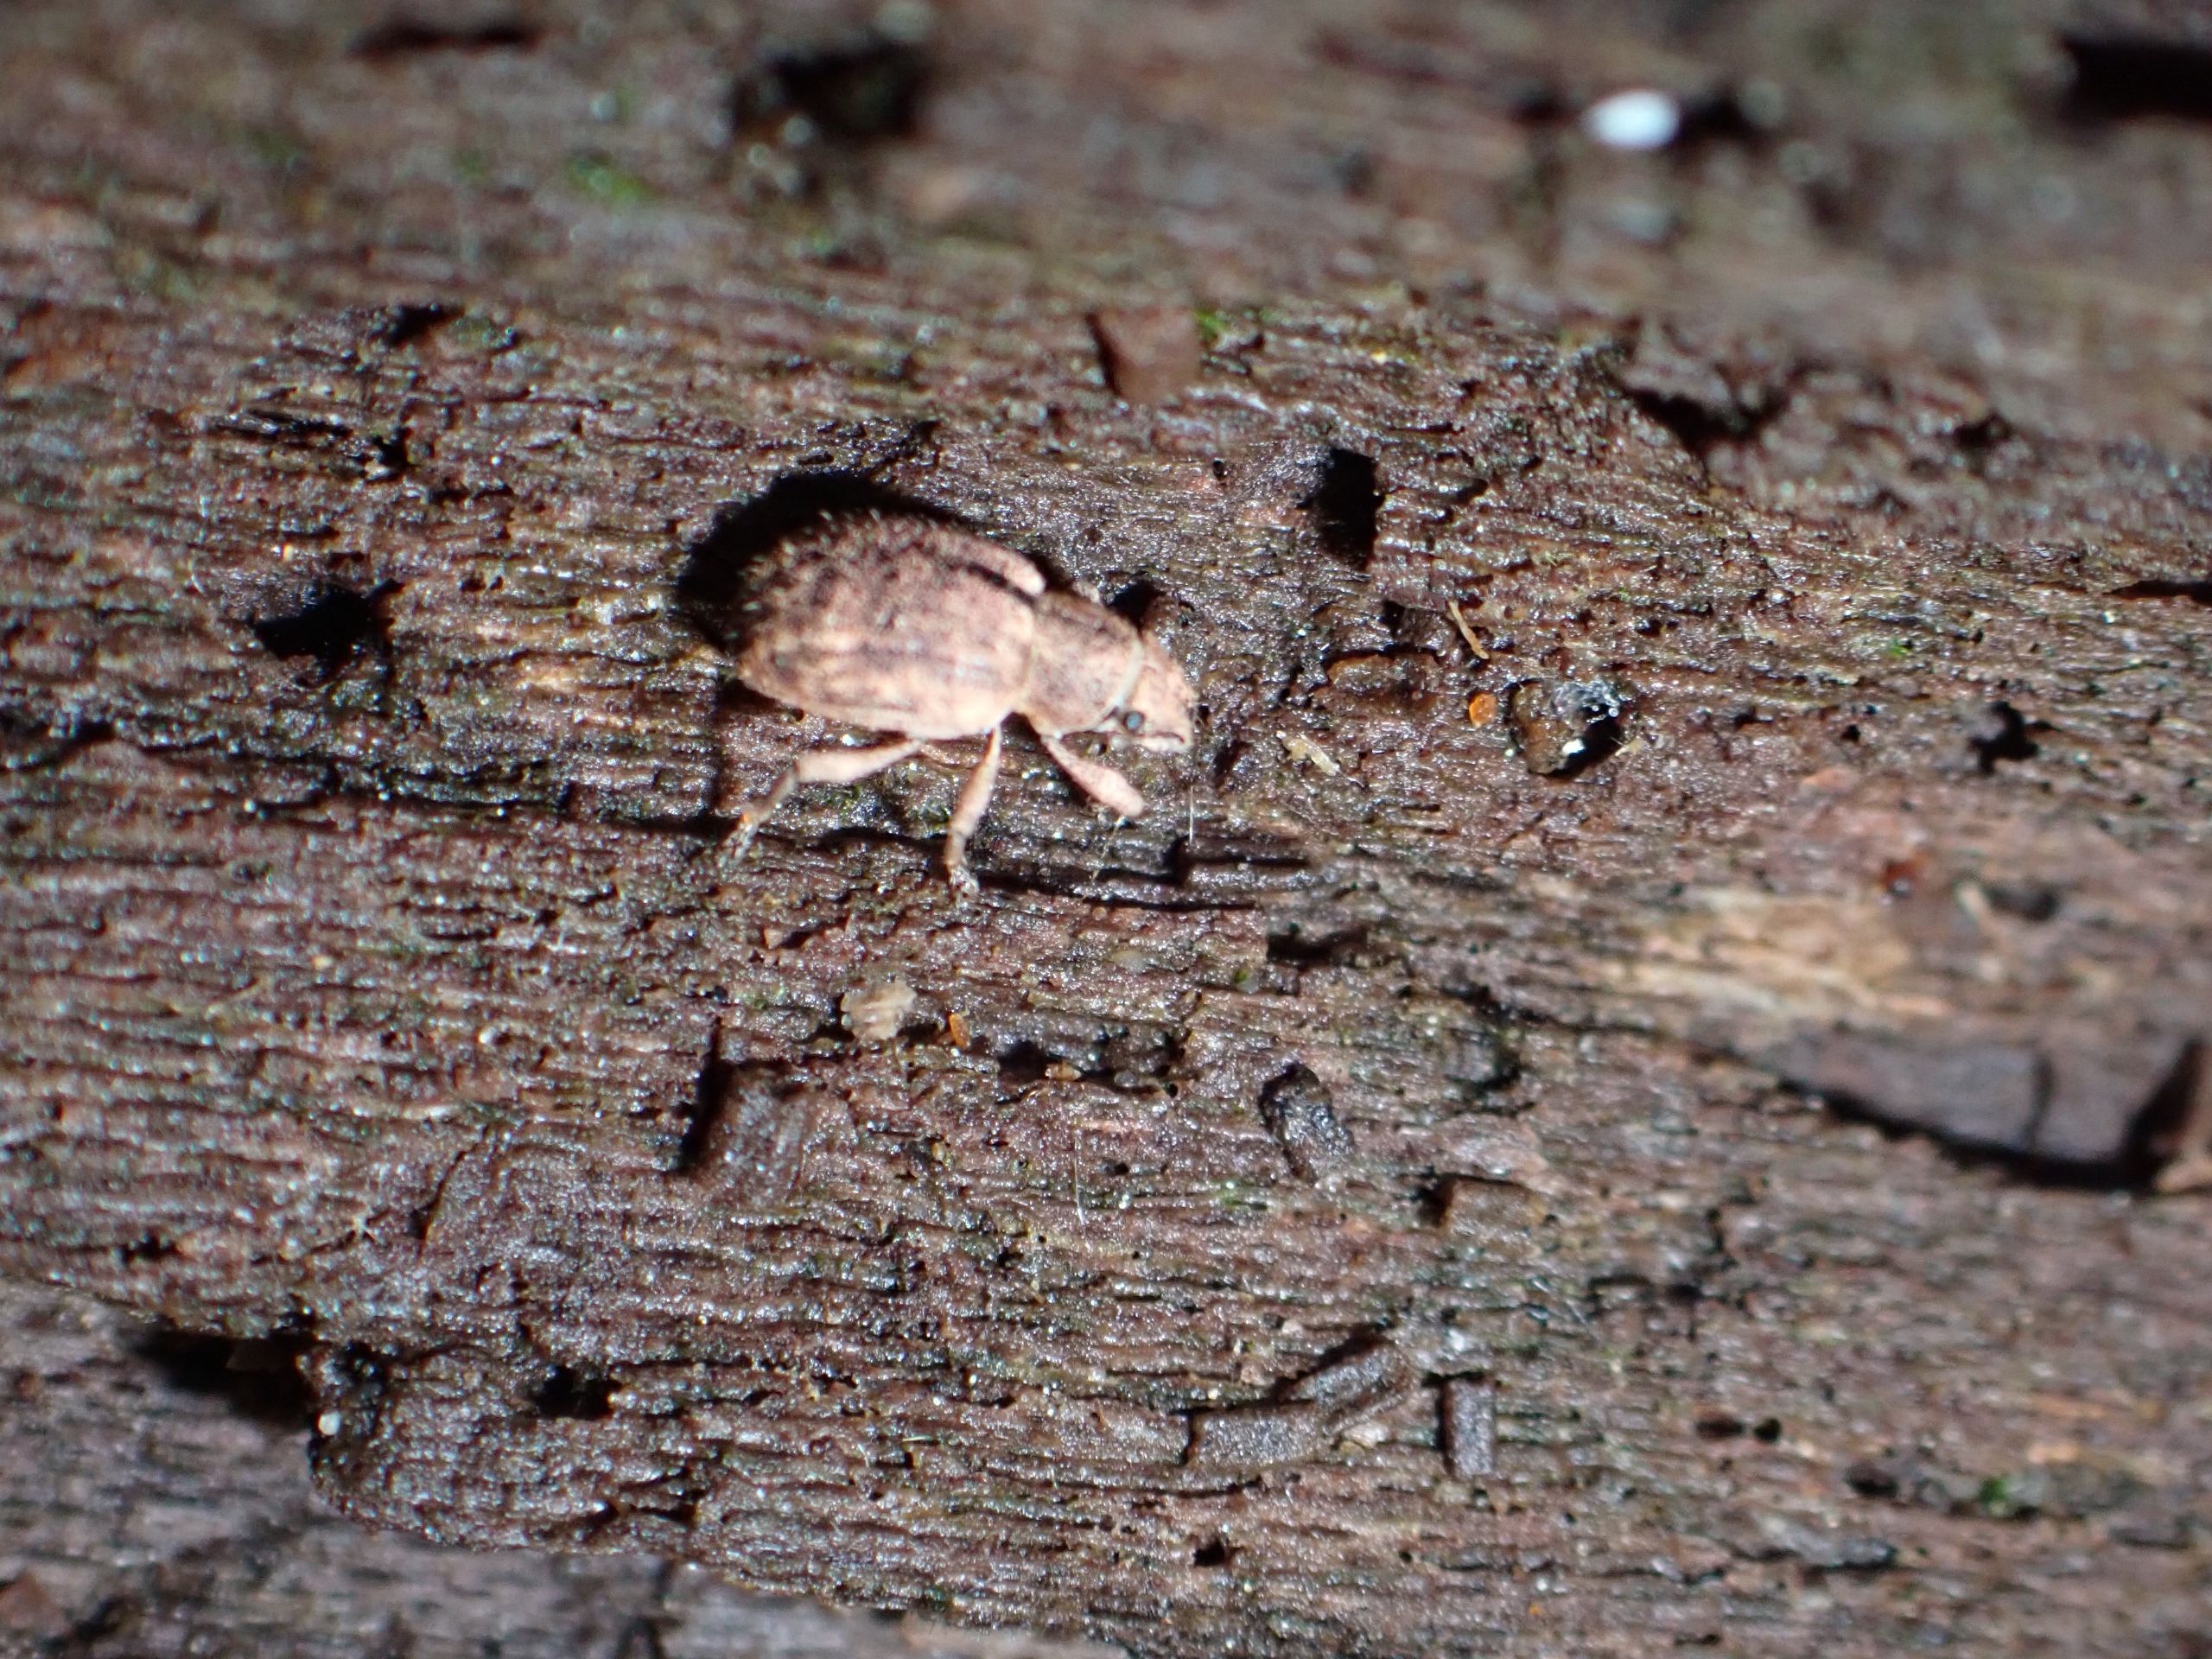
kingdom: Animalia
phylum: Arthropoda
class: Insecta
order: Coleoptera
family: Curculionidae
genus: Strophosoma
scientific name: Strophosoma melanogrammum
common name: Stribet gråsnude
